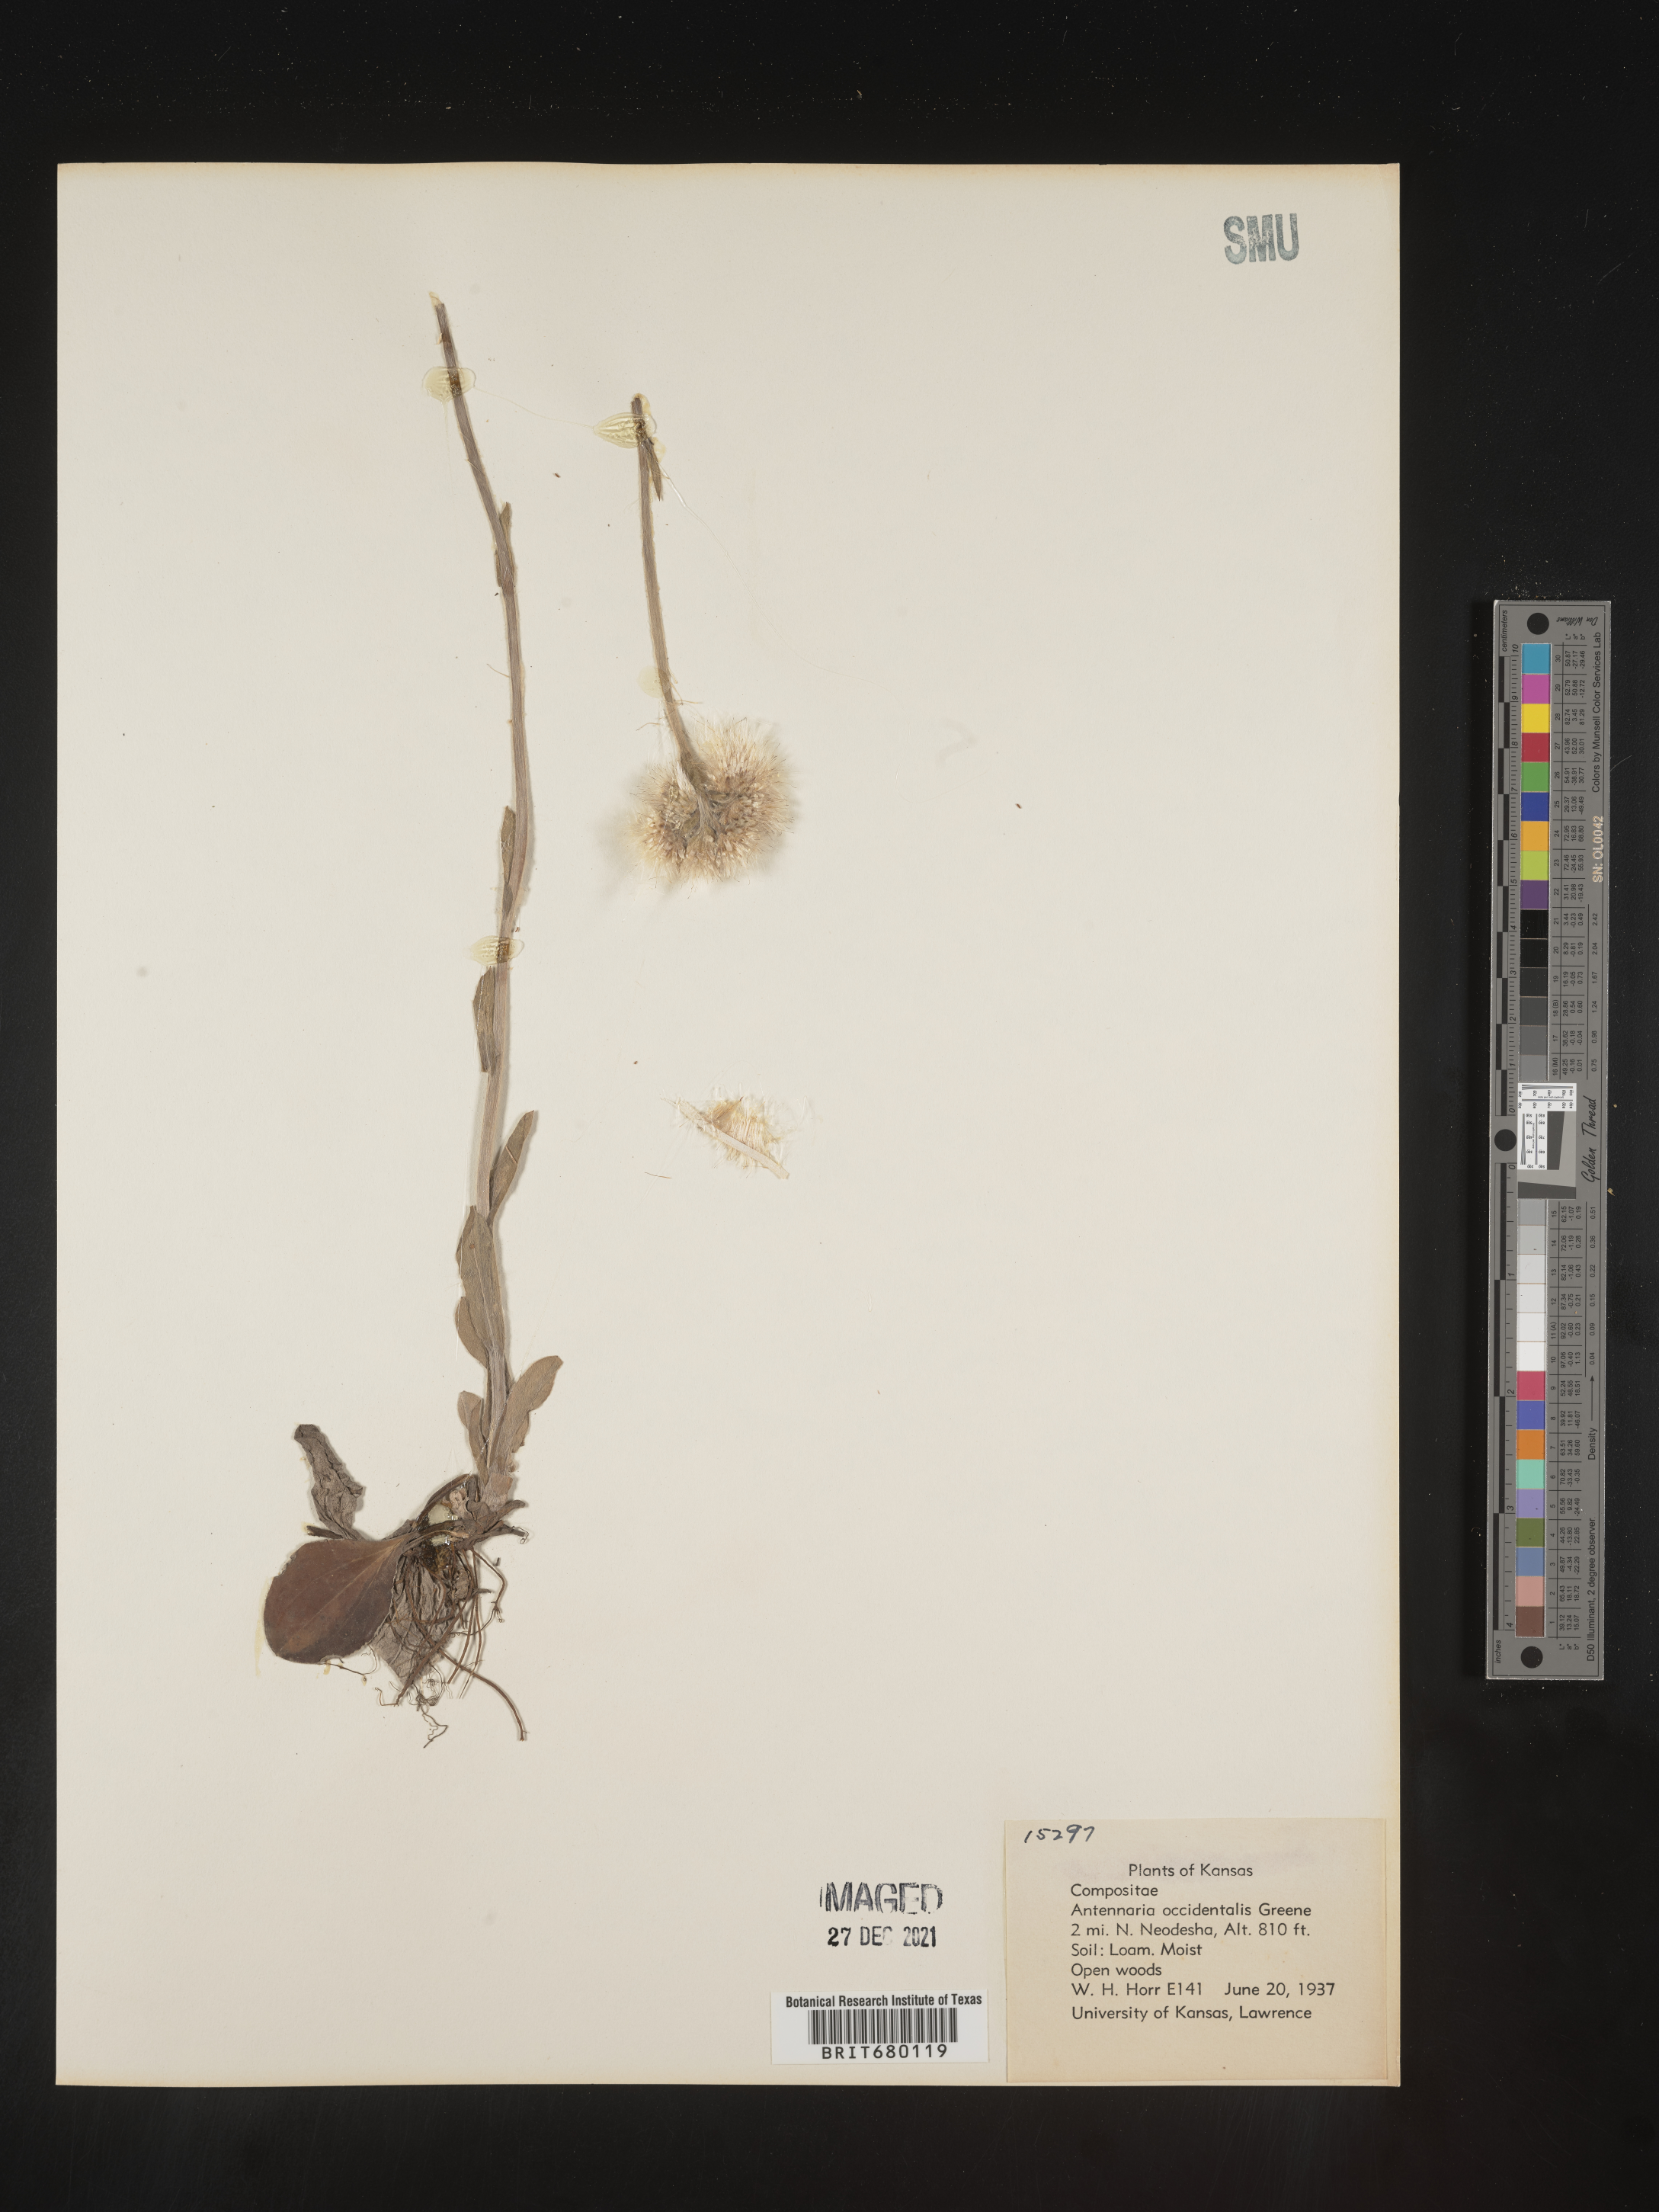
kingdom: Plantae
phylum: Tracheophyta
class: Magnoliopsida
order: Asterales
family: Asteraceae
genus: Antennaria
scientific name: Antennaria plantaginifolia
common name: Plantain-leaved pussytoes
